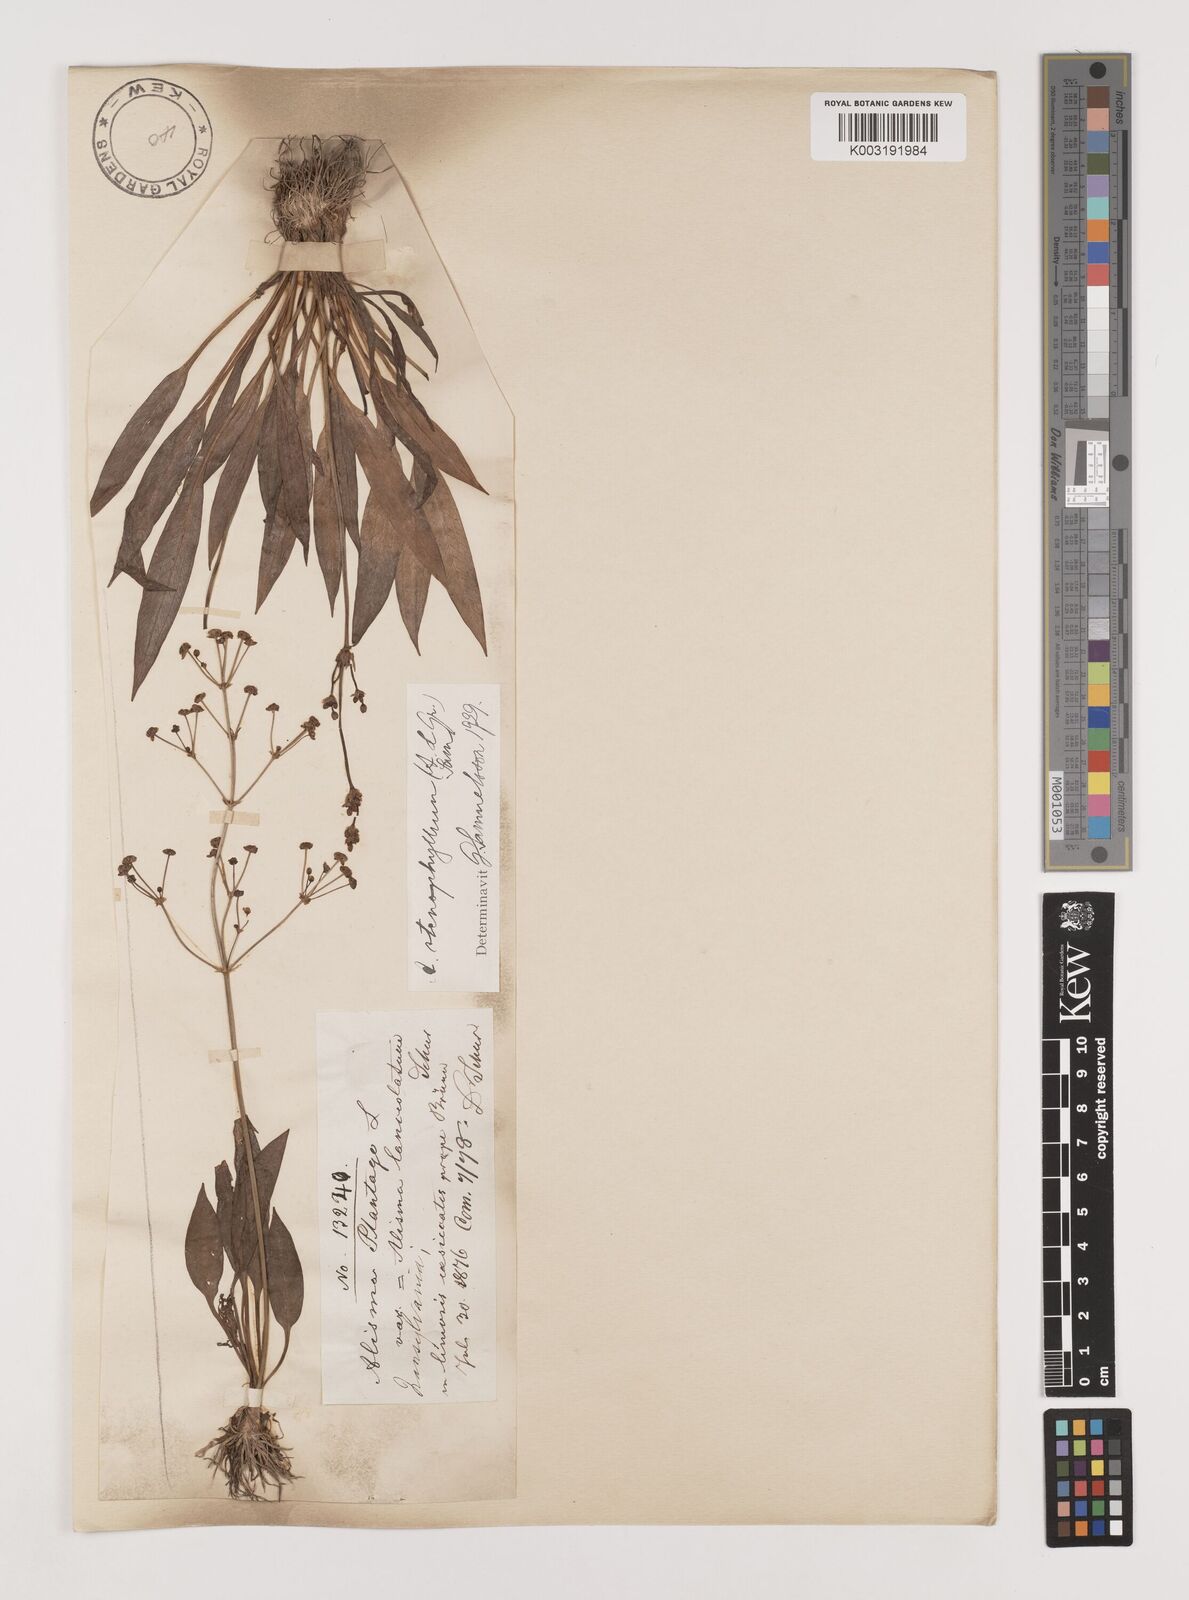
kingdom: Plantae
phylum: Tracheophyta
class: Liliopsida
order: Alismatales
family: Alismataceae
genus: Alisma
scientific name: Alisma lanceolatum
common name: Narrow-leaved water-plantain
